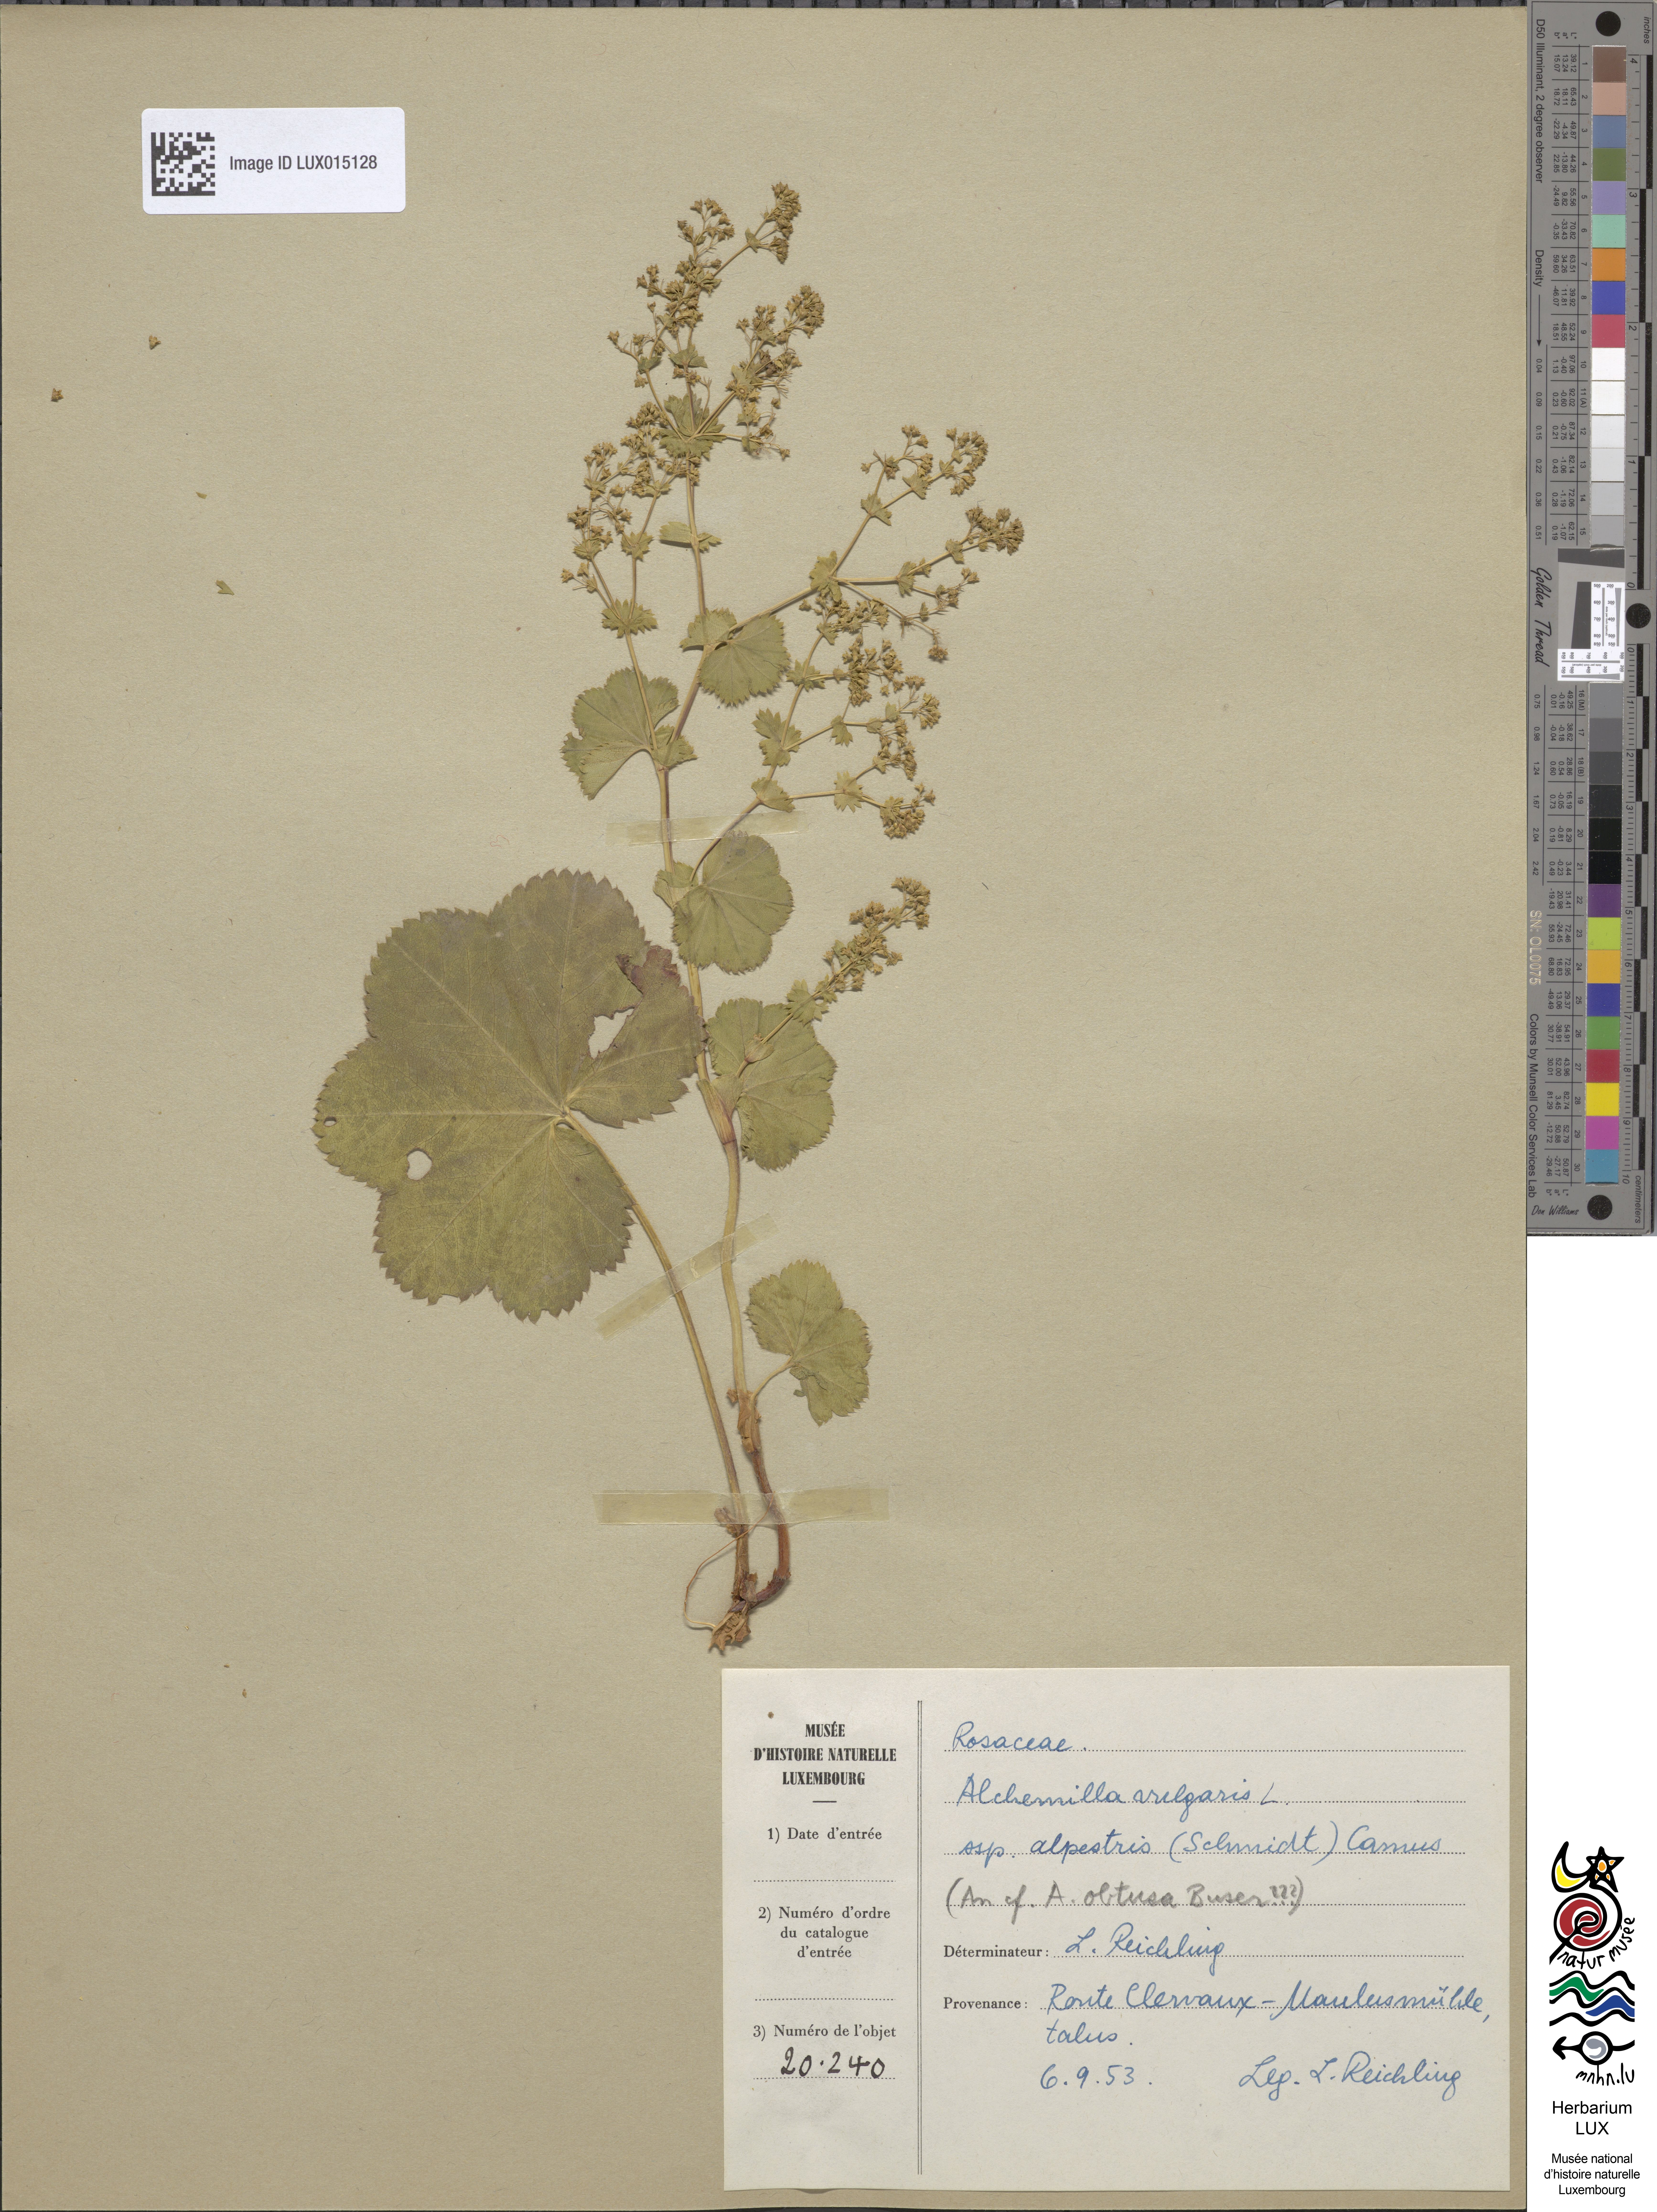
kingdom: Plantae
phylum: Tracheophyta
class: Magnoliopsida
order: Rosales
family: Rosaceae
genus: Alchemilla
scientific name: Alchemilla glabra
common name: Smooth lady's-mantle
